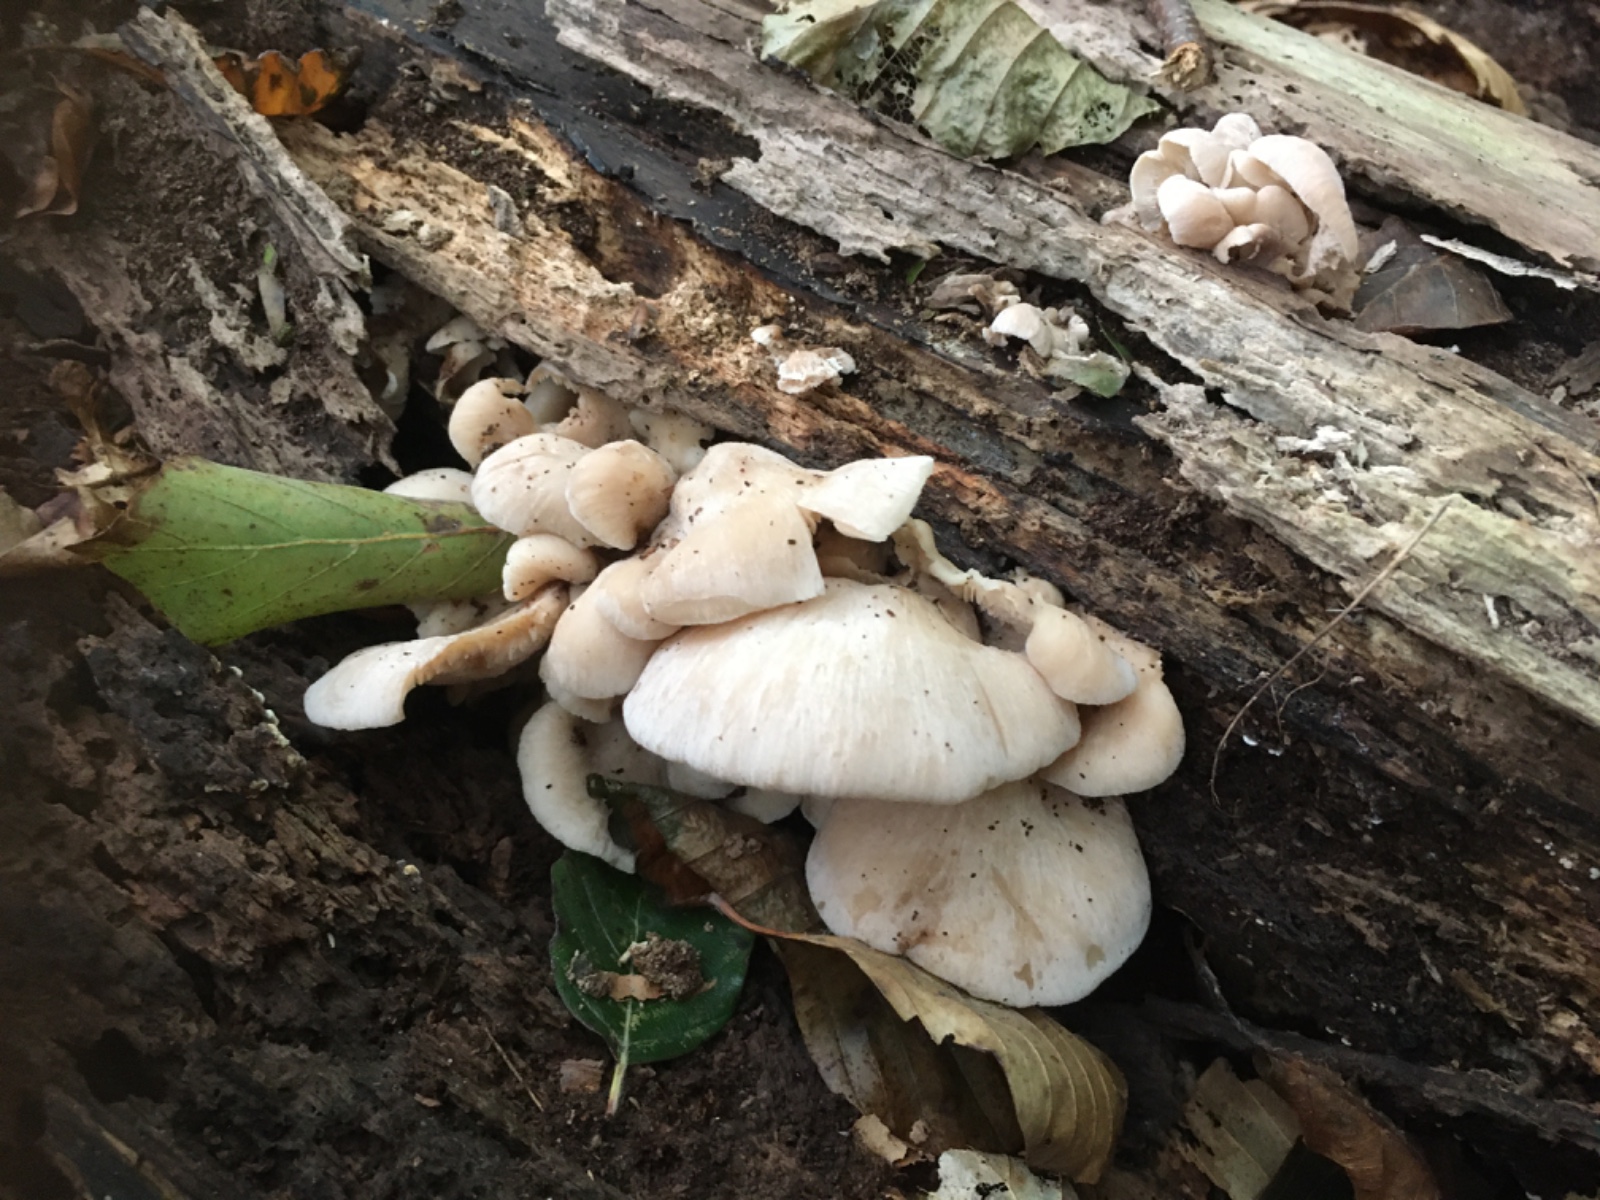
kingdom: Fungi
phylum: Basidiomycota
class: Agaricomycetes
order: Russulales
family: Auriscalpiaceae
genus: Lentinellus
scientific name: Lentinellus ursinus
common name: børstehåret savbladhat
